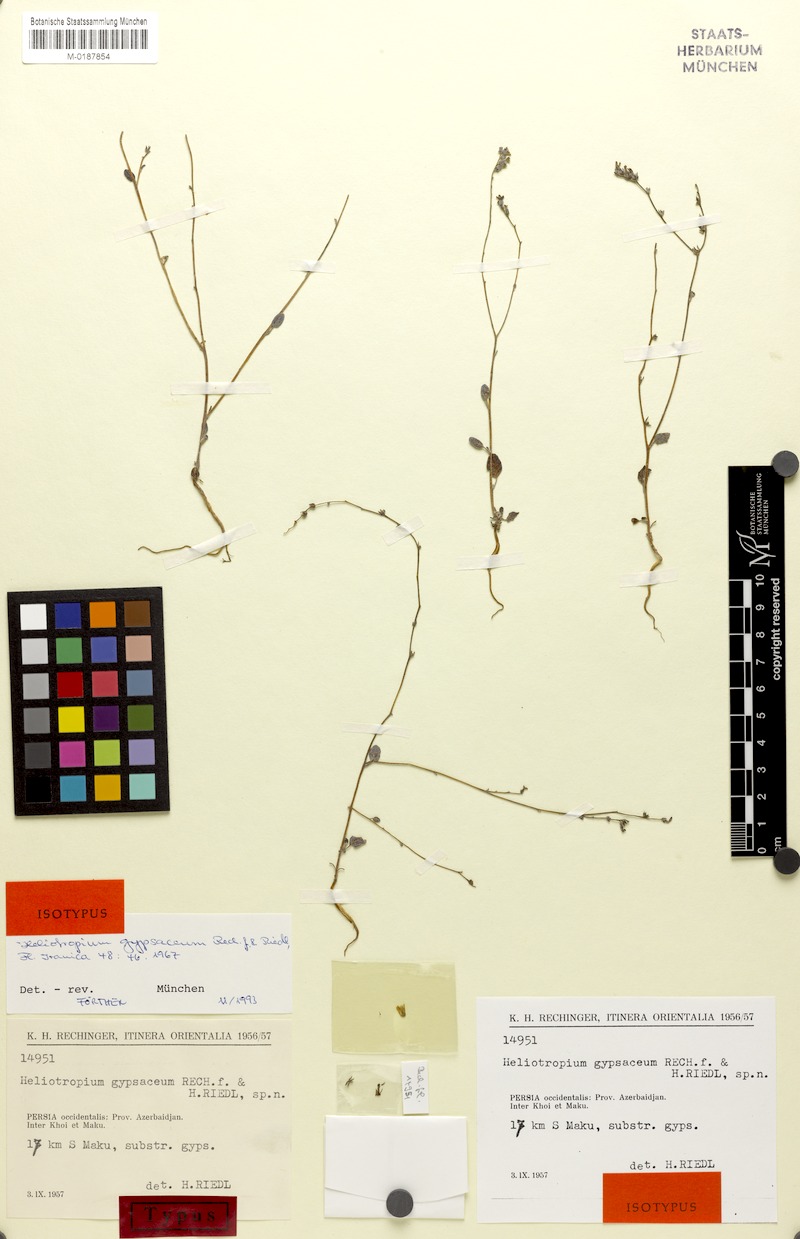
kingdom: Plantae
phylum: Tracheophyta
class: Magnoliopsida
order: Boraginales
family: Heliotropiaceae
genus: Heliotropium
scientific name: Heliotropium gypsaceum
